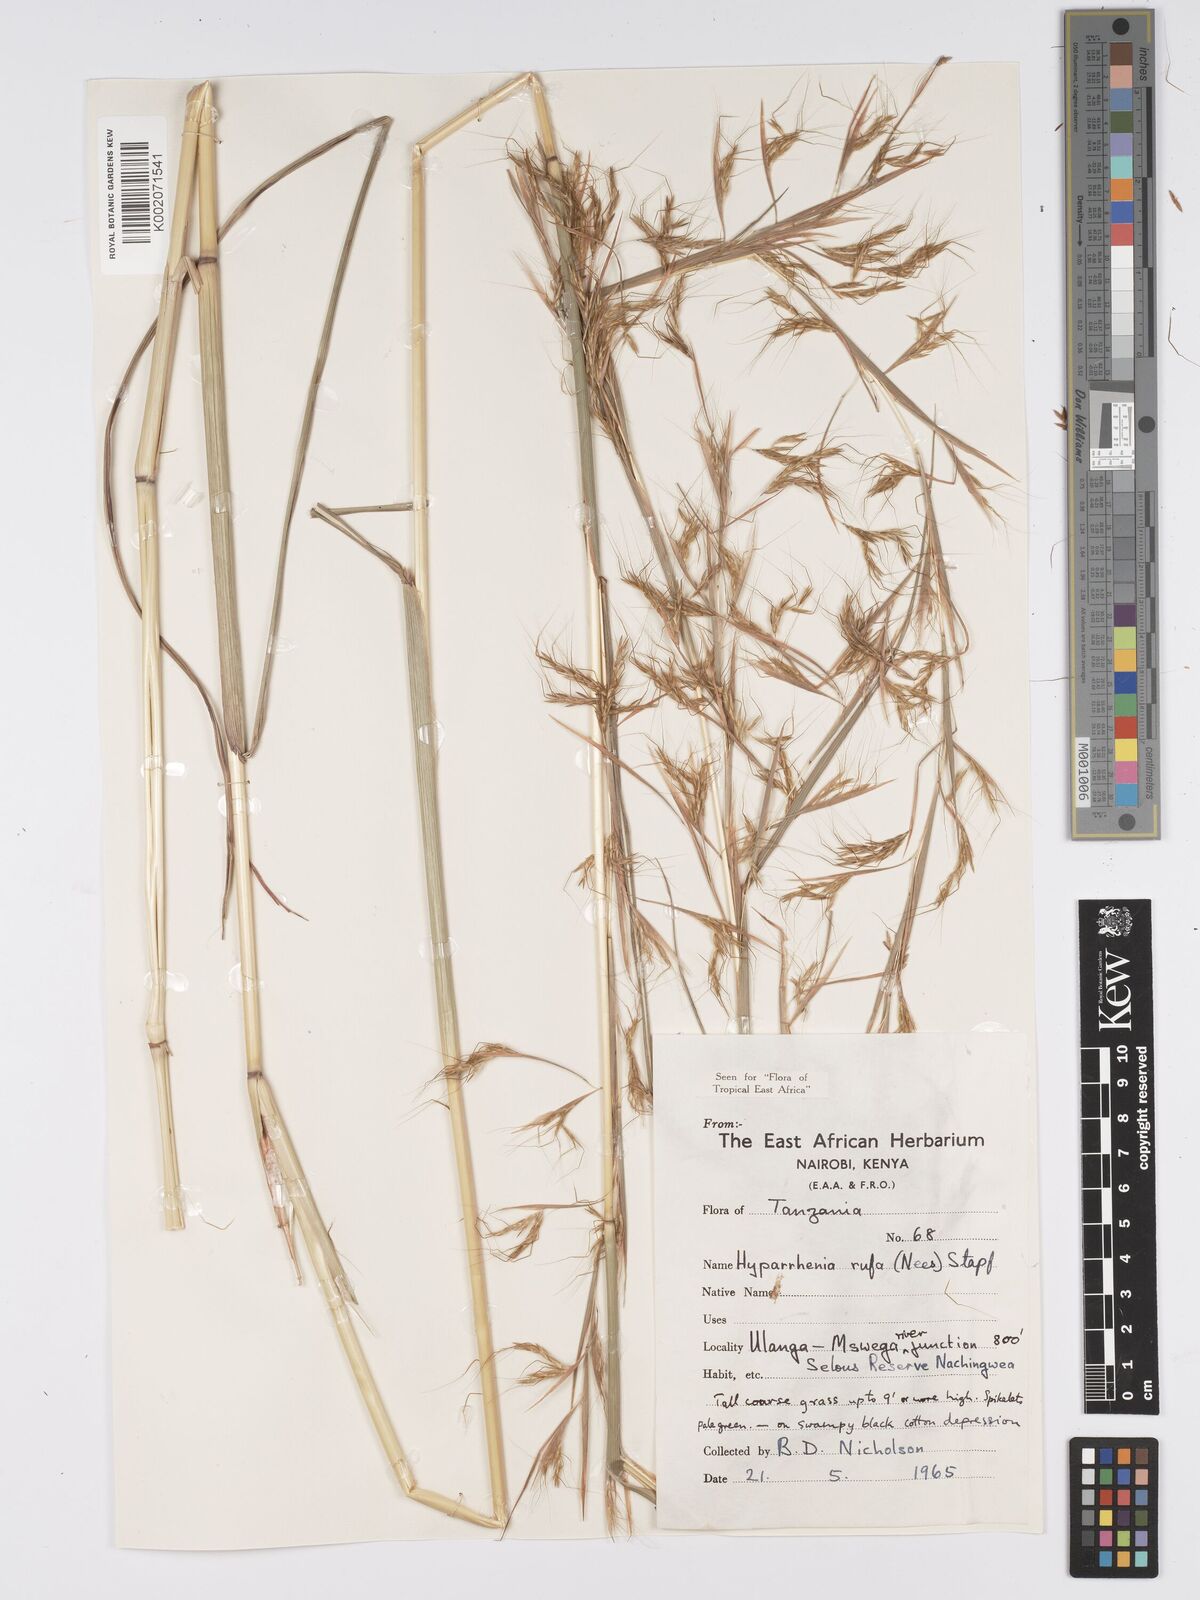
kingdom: Plantae
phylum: Tracheophyta
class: Liliopsida
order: Poales
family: Poaceae
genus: Hyparrhenia
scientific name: Hyparrhenia rufa
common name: Jaraguagrass
